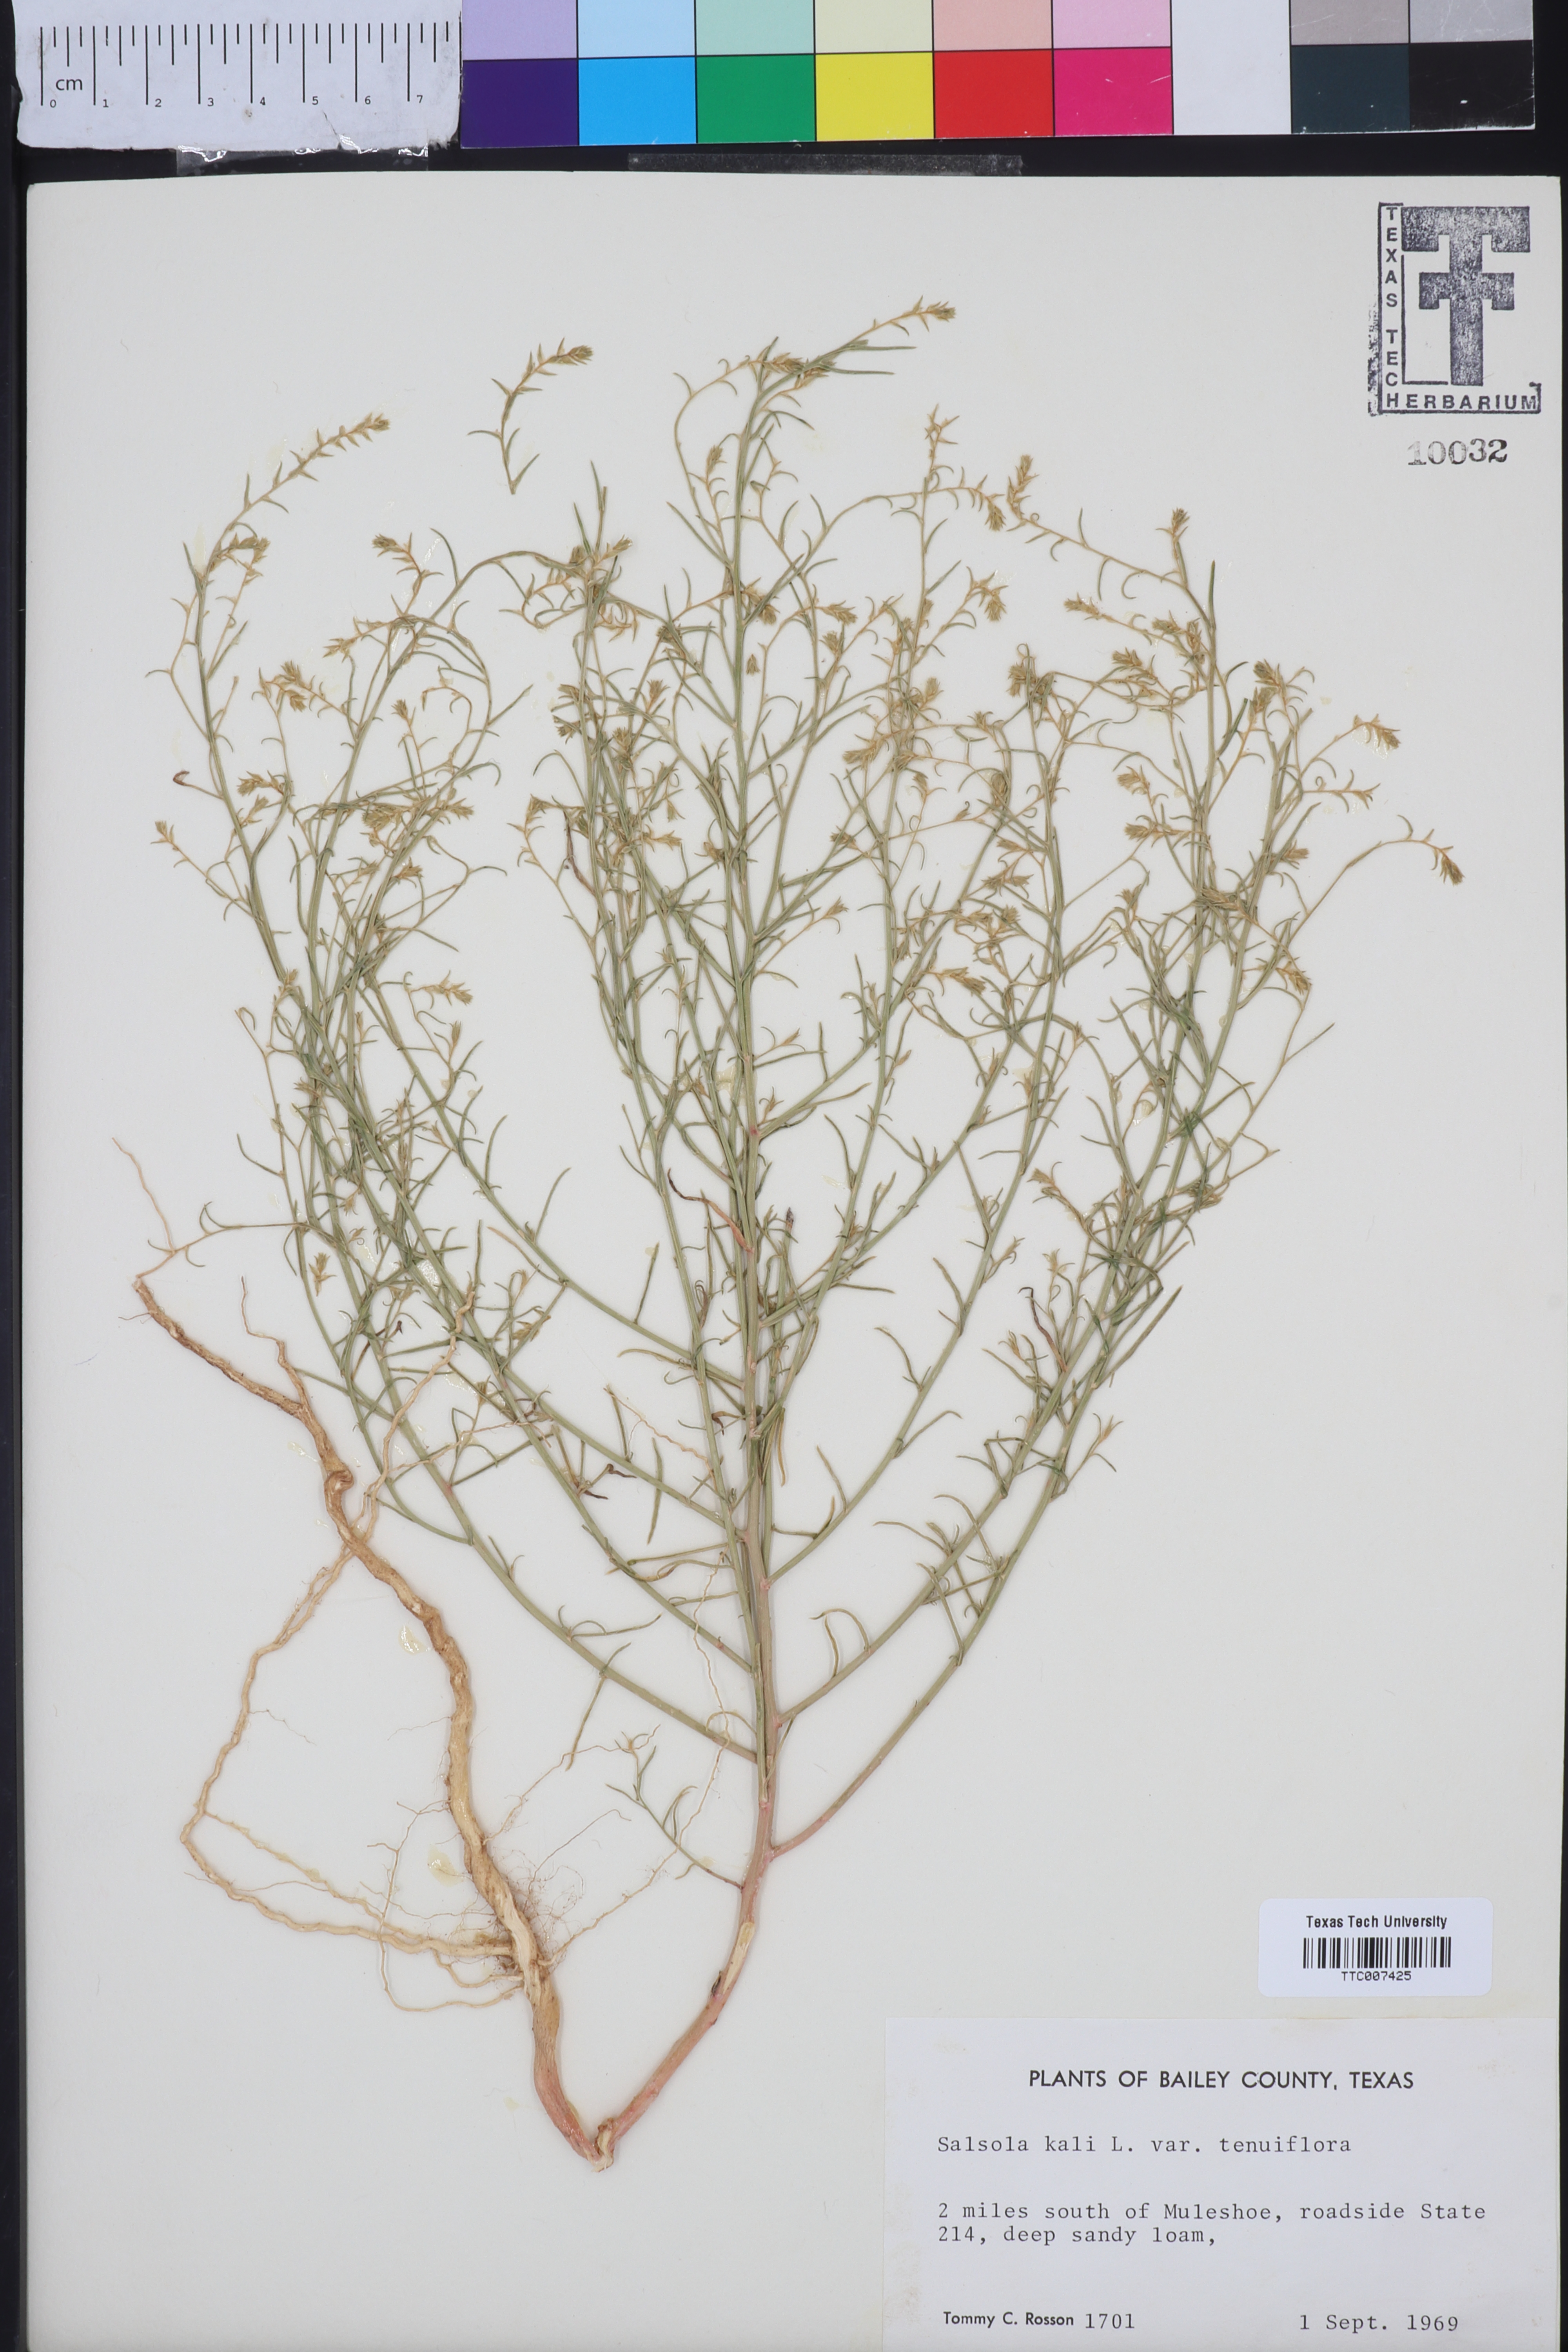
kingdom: Plantae
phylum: Tracheophyta
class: Magnoliopsida
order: Caryophyllales
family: Amaranthaceae
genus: Salsola
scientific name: Salsola tragus
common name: Prickly russian thistle
